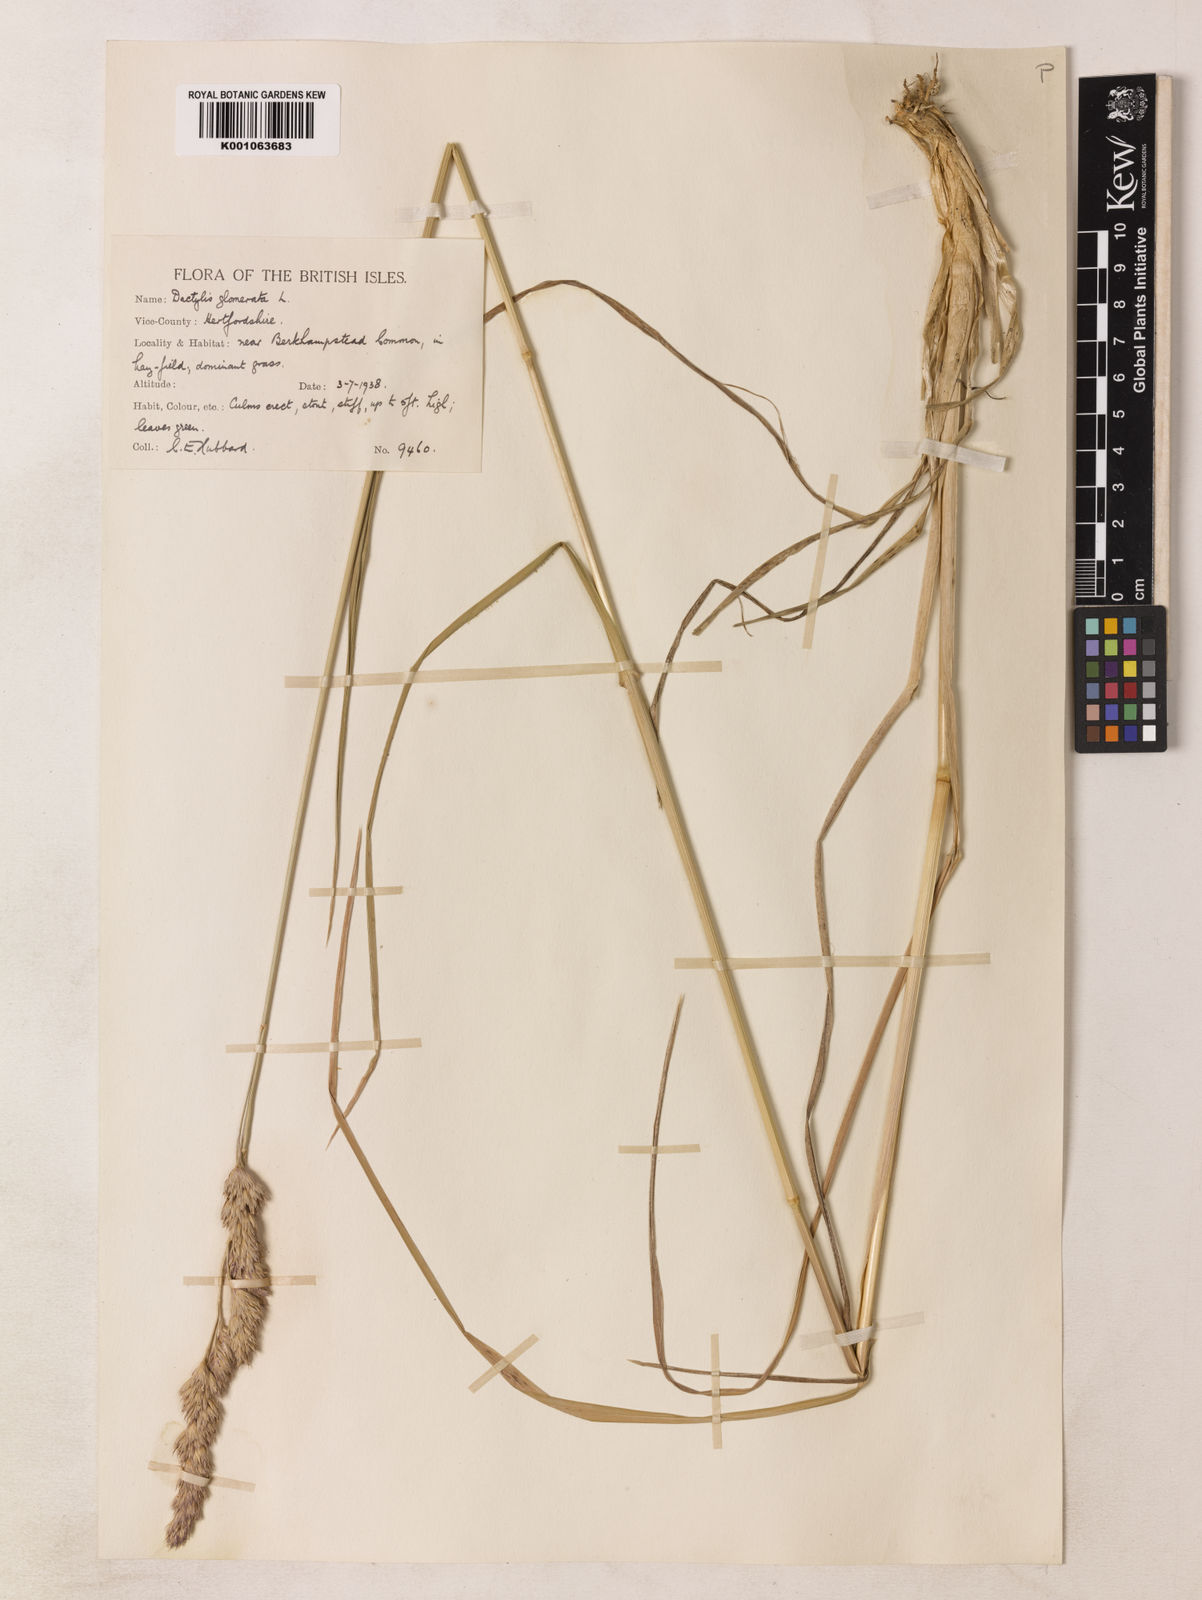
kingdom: Plantae
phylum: Tracheophyta
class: Liliopsida
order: Poales
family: Poaceae
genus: Dactylis
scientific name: Dactylis glomerata
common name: Orchardgrass
